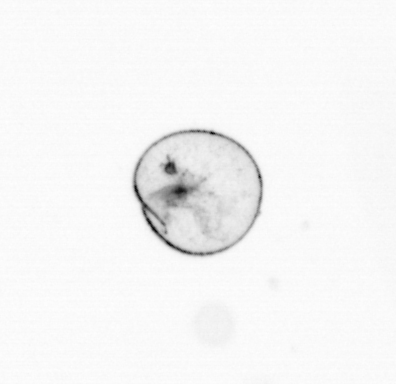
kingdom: Chromista
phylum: Myzozoa
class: Dinophyceae
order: Noctilucales
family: Noctilucaceae
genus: Noctiluca
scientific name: Noctiluca scintillans
